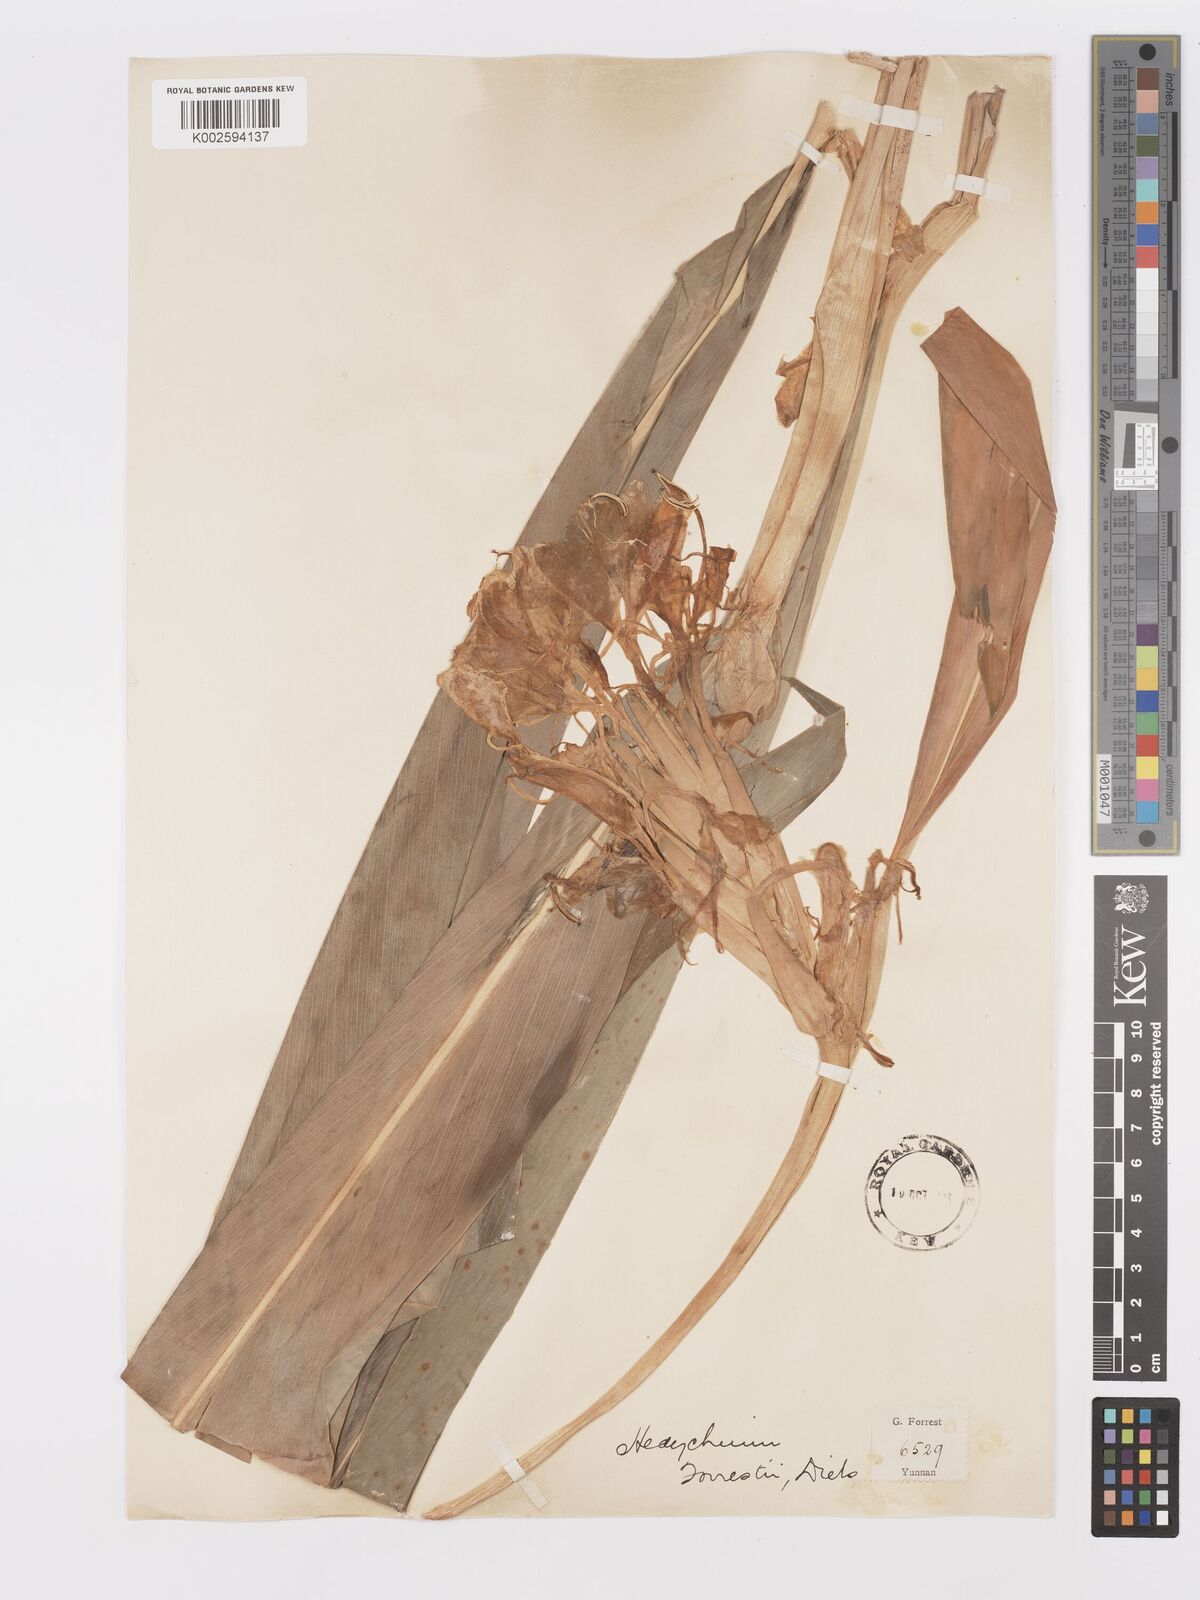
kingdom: Plantae
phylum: Tracheophyta
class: Liliopsida
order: Zingiberales
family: Zingiberaceae
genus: Hedychium
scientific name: Hedychium forrestii
